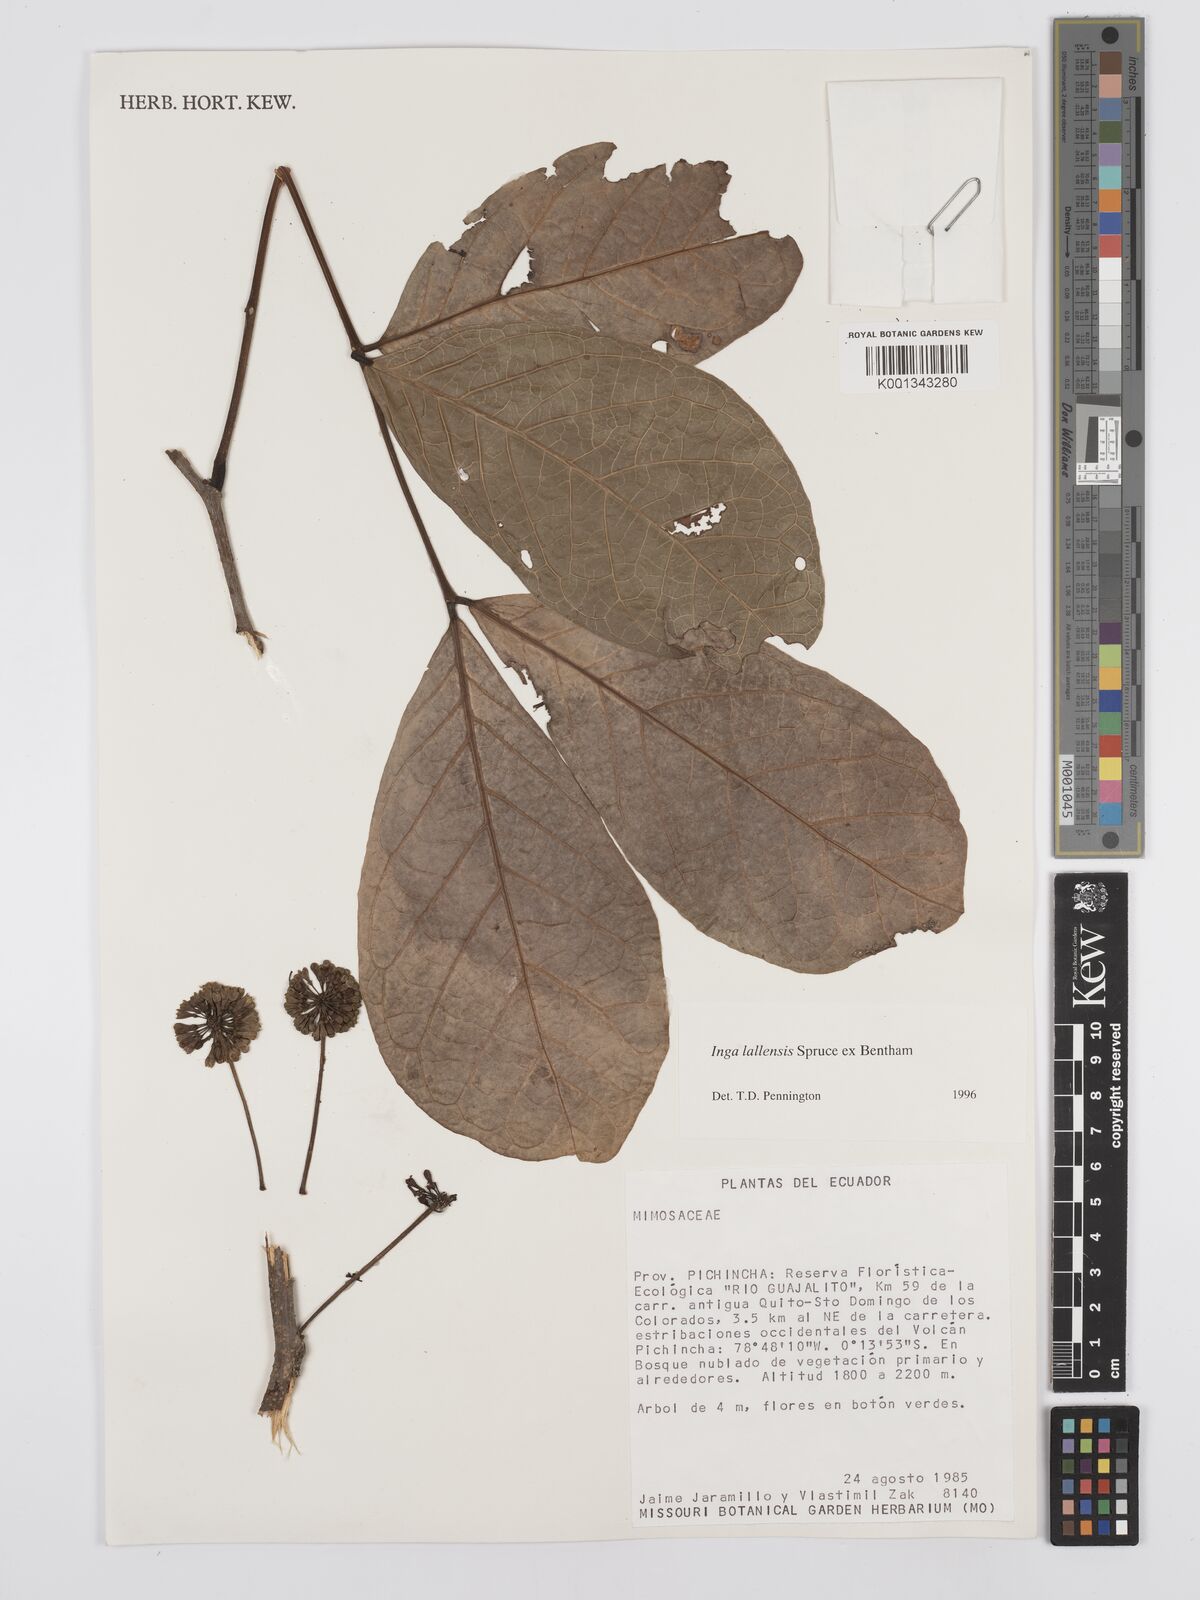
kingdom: Plantae
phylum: Tracheophyta
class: Magnoliopsida
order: Fabales
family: Fabaceae
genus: Inga
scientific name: Inga lallensis
